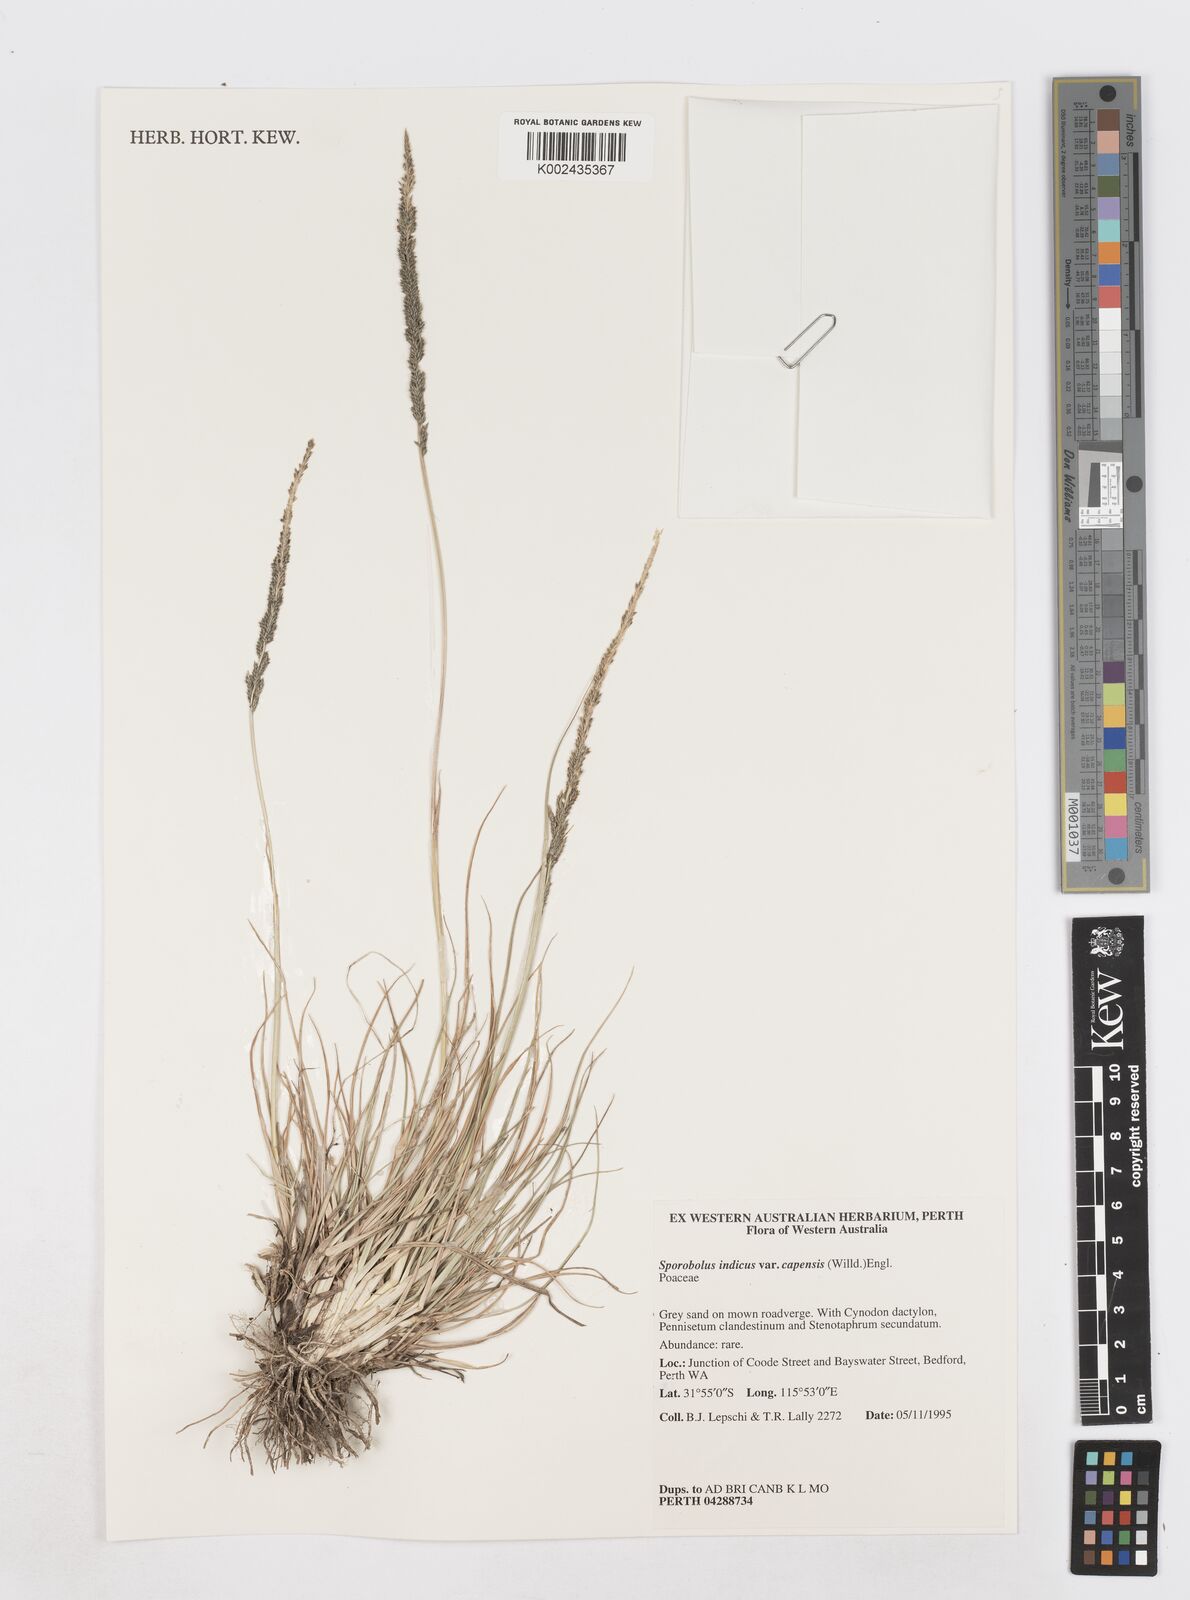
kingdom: Plantae
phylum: Tracheophyta
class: Liliopsida
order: Poales
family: Poaceae
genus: Sporobolus
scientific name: Sporobolus africanus
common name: African dropseed
